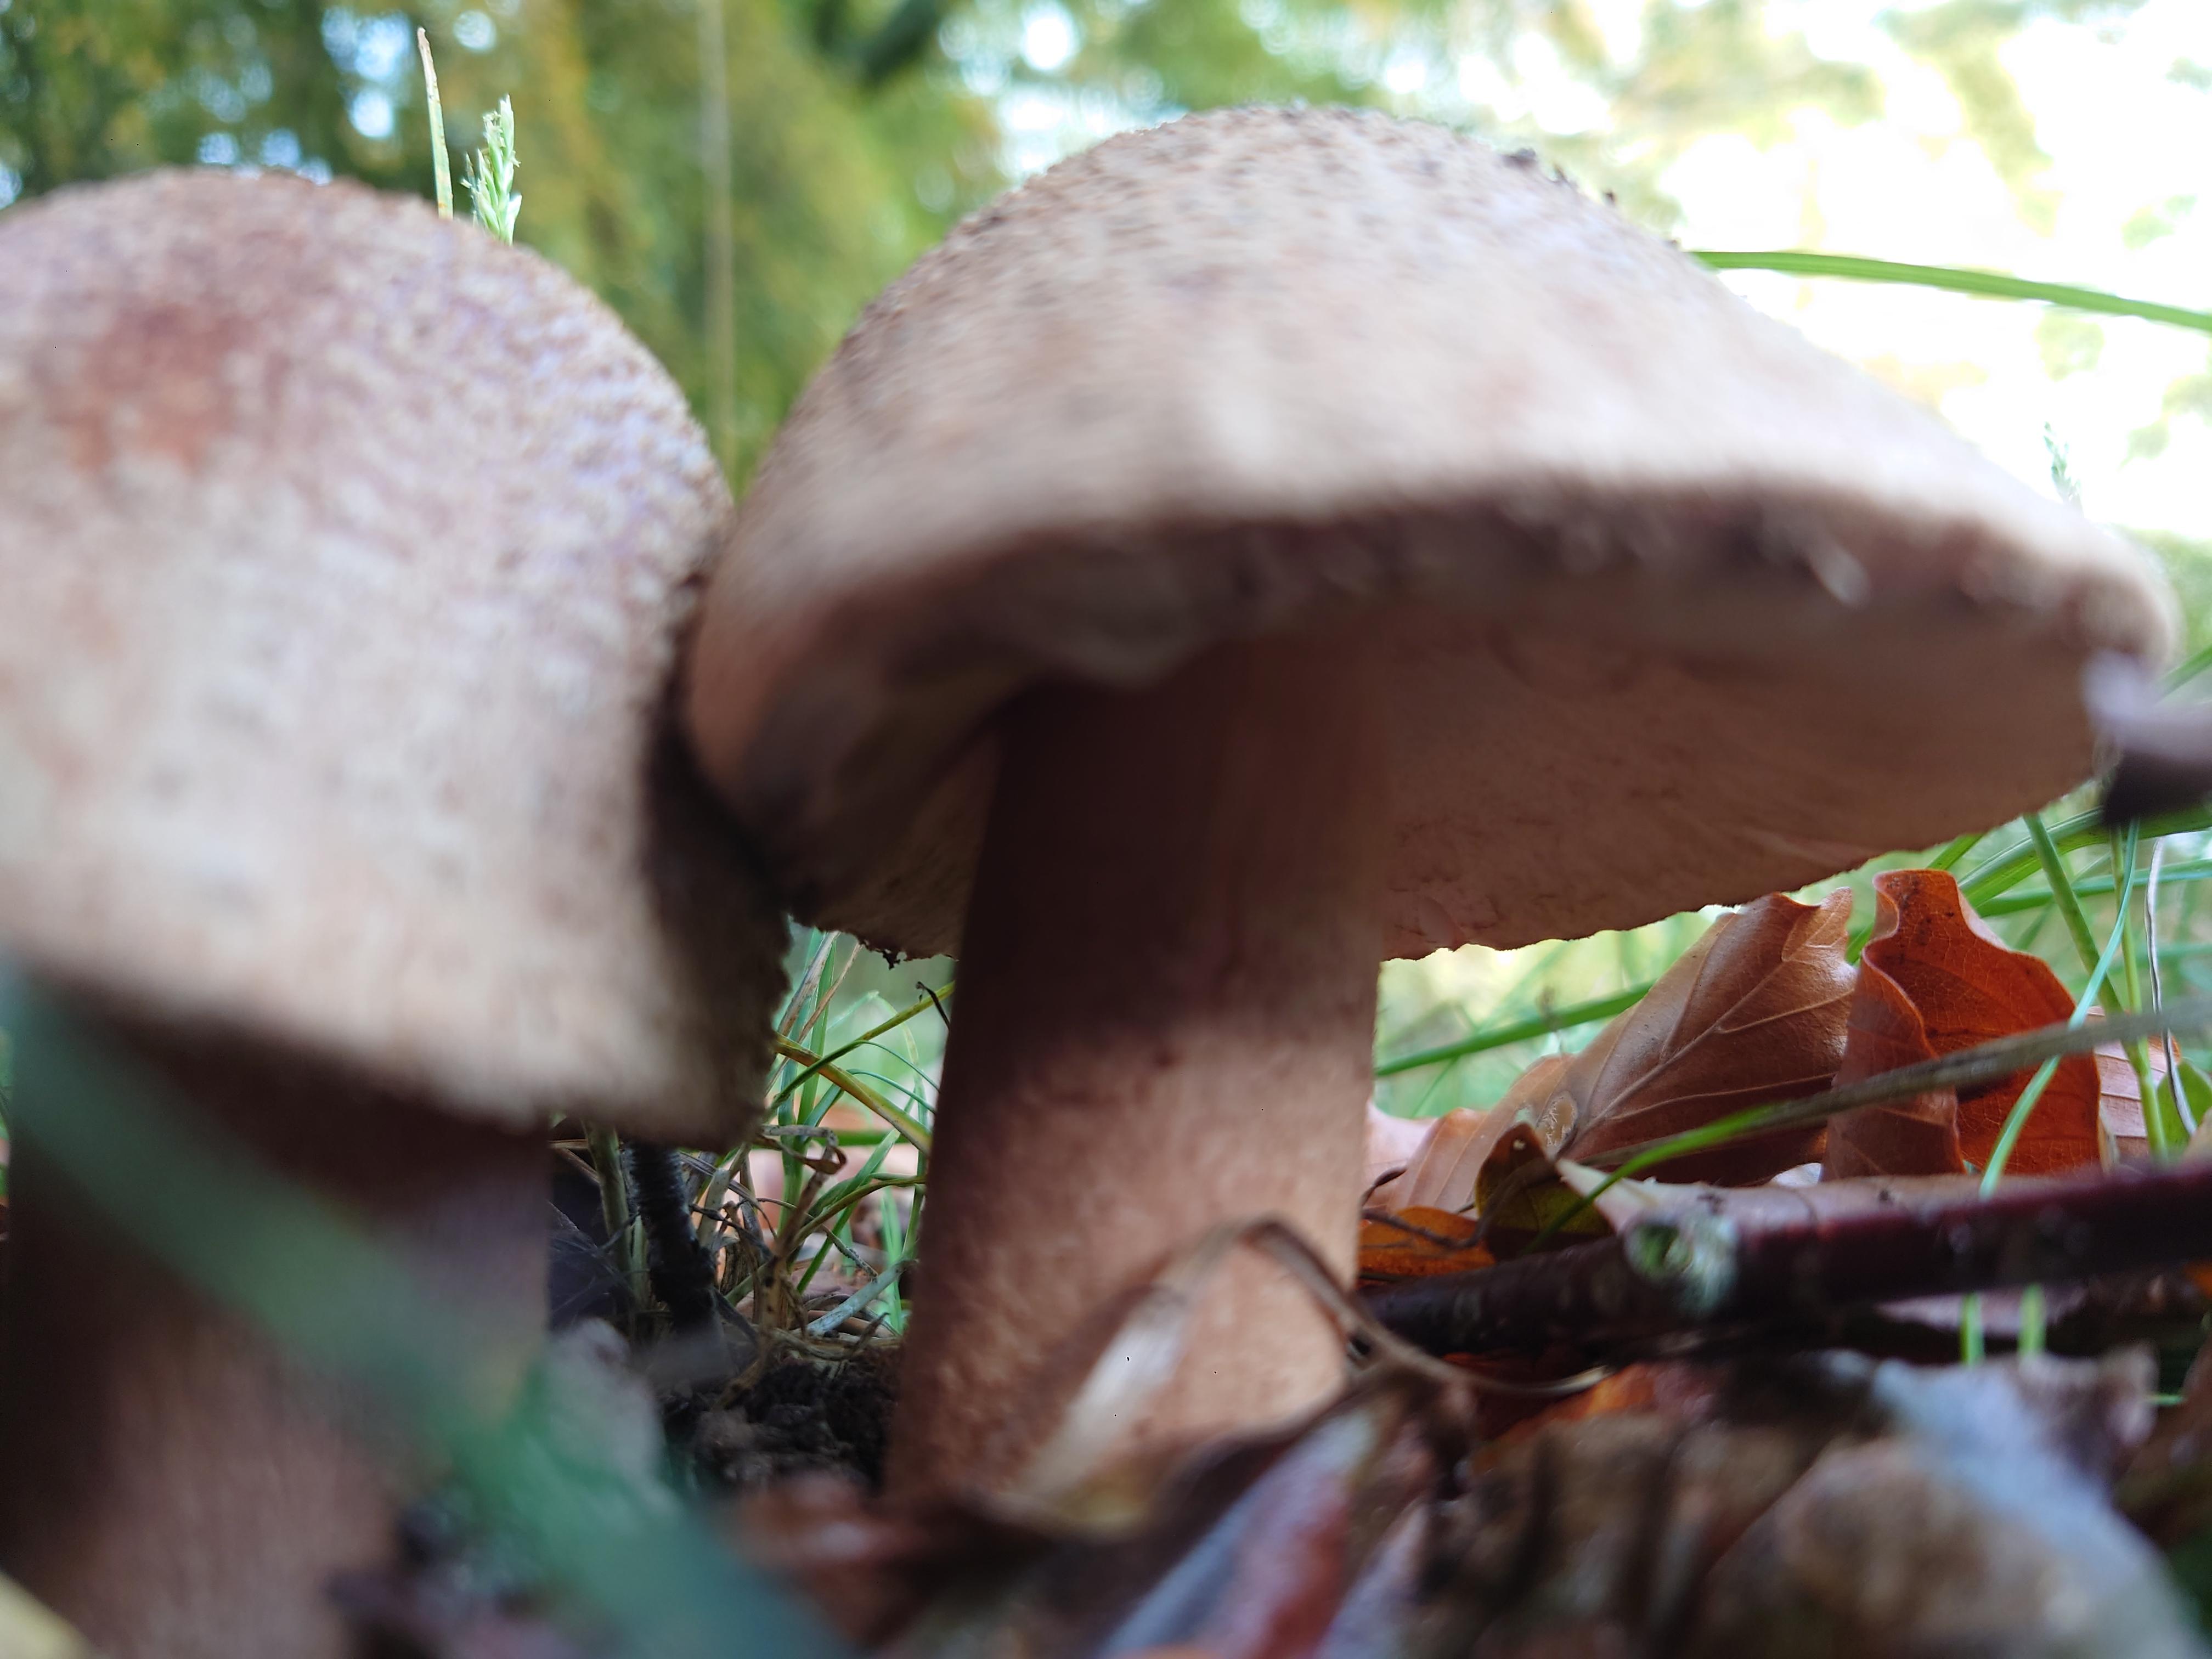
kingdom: Fungi
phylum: Basidiomycota
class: Agaricomycetes
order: Agaricales
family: Amanitaceae
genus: Amanita
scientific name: Amanita rubescens
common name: rødmende fluesvamp
